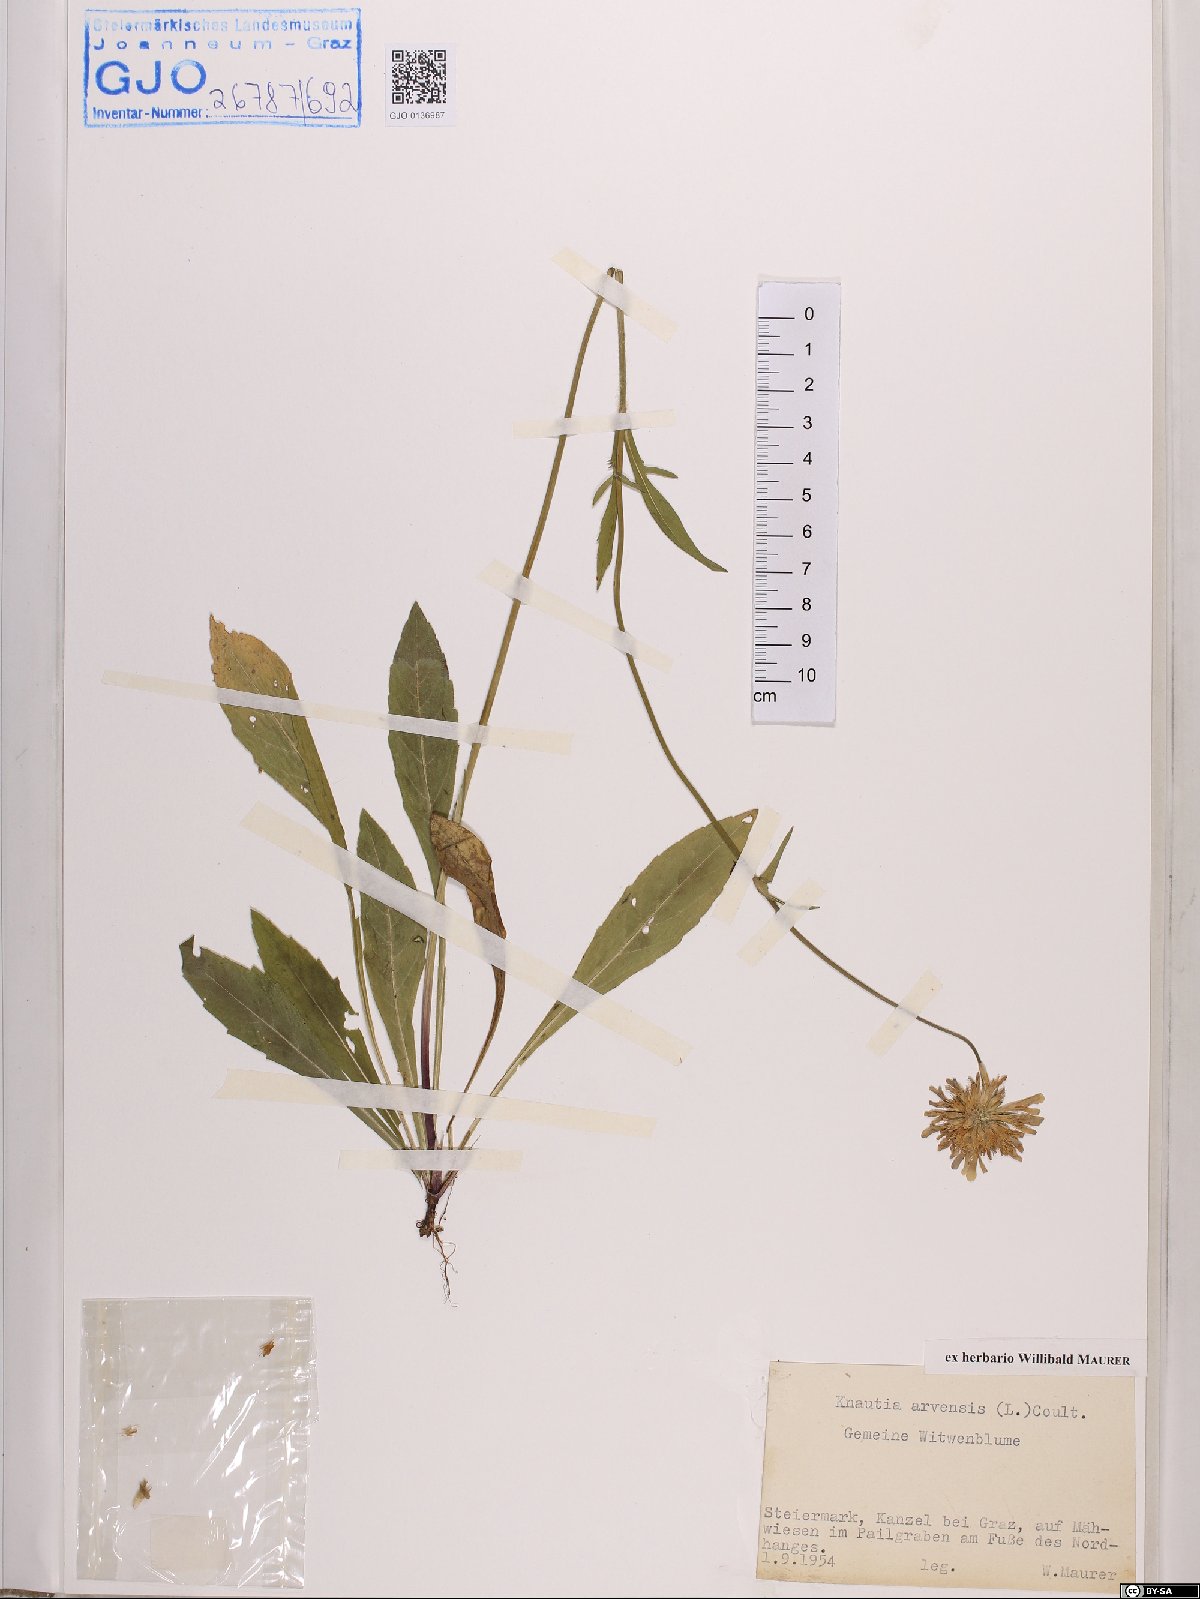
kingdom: Plantae
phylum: Tracheophyta
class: Magnoliopsida
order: Dipsacales
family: Caprifoliaceae
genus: Knautia
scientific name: Knautia arvensis
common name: Field scabiosa
